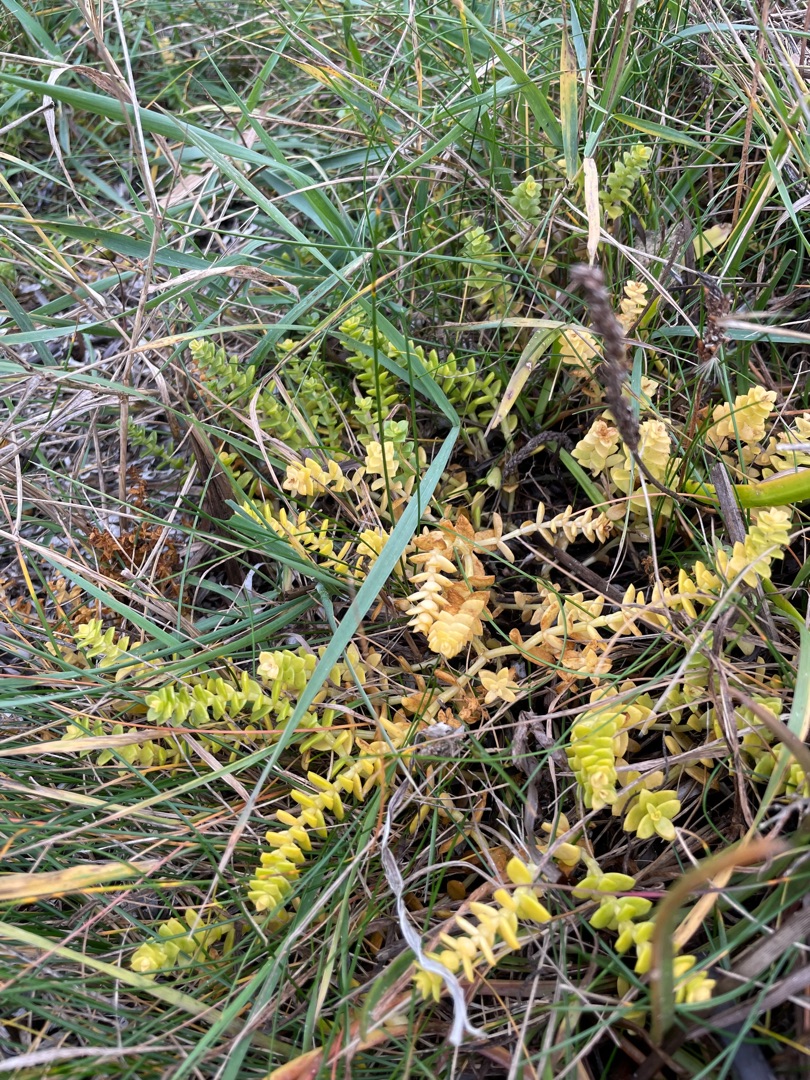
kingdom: Plantae
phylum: Tracheophyta
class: Magnoliopsida
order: Caryophyllales
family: Caryophyllaceae
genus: Honckenya
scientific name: Honckenya peploides
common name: Strandarve
